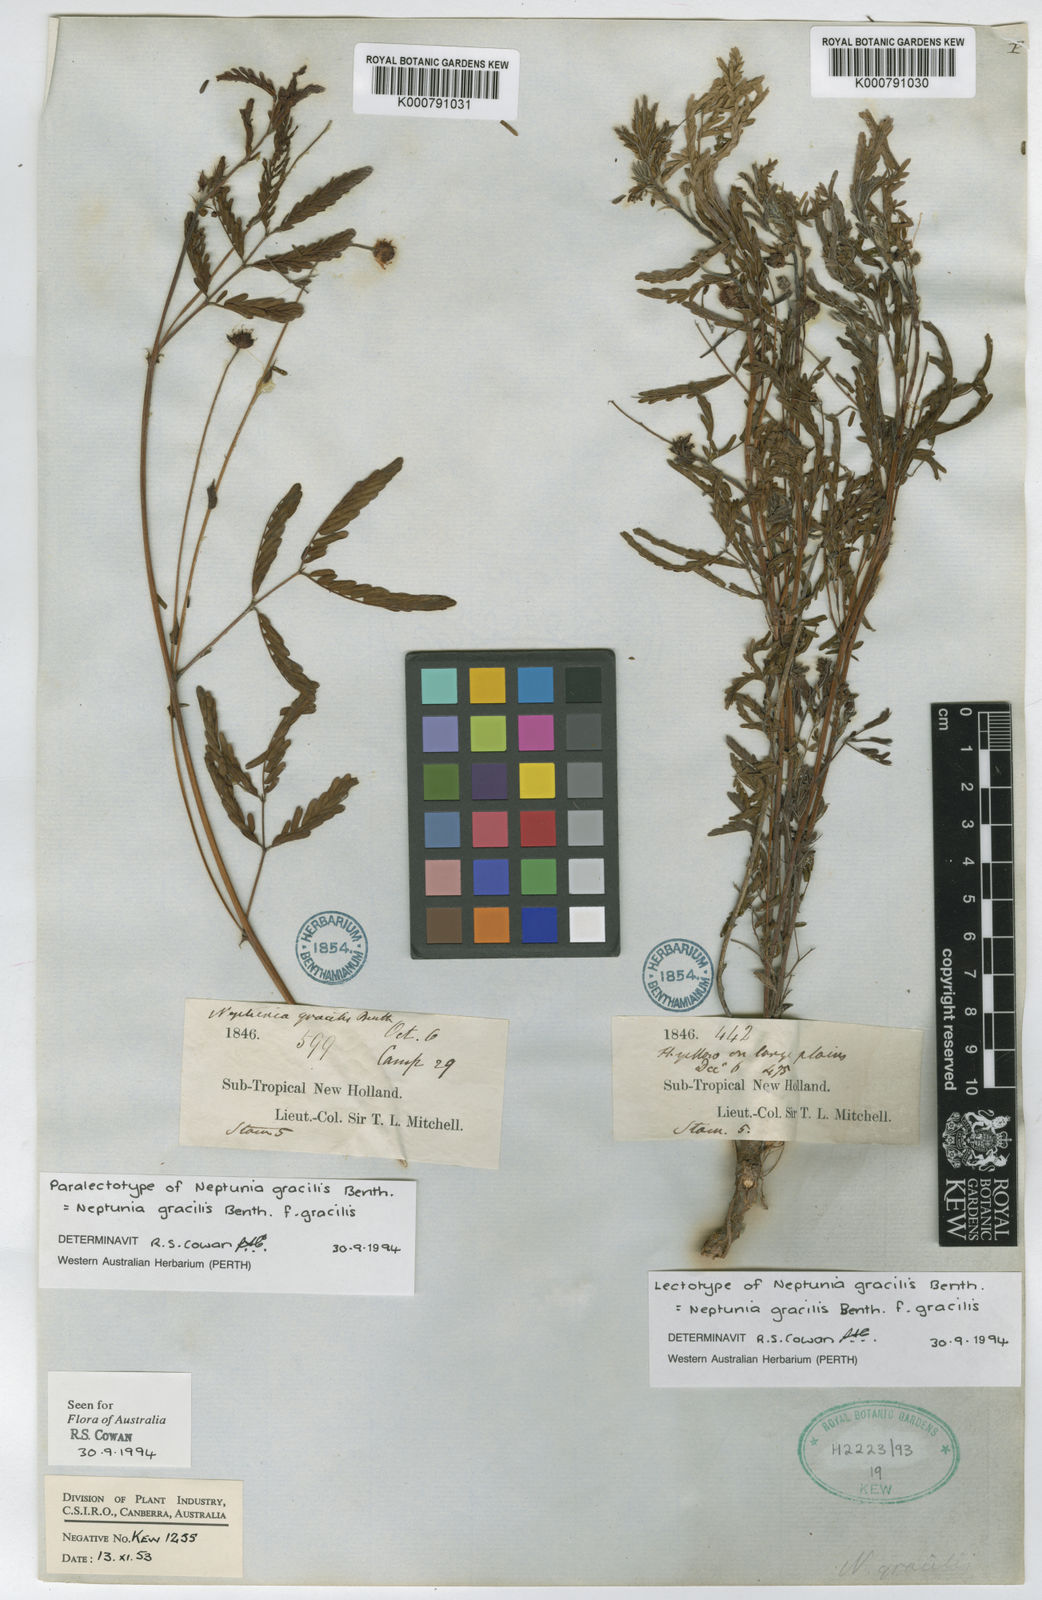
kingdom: Plantae
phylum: Tracheophyta
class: Magnoliopsida
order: Fabales
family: Fabaceae
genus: Neptunia
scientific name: Neptunia gracilis
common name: Sensitive-plant
